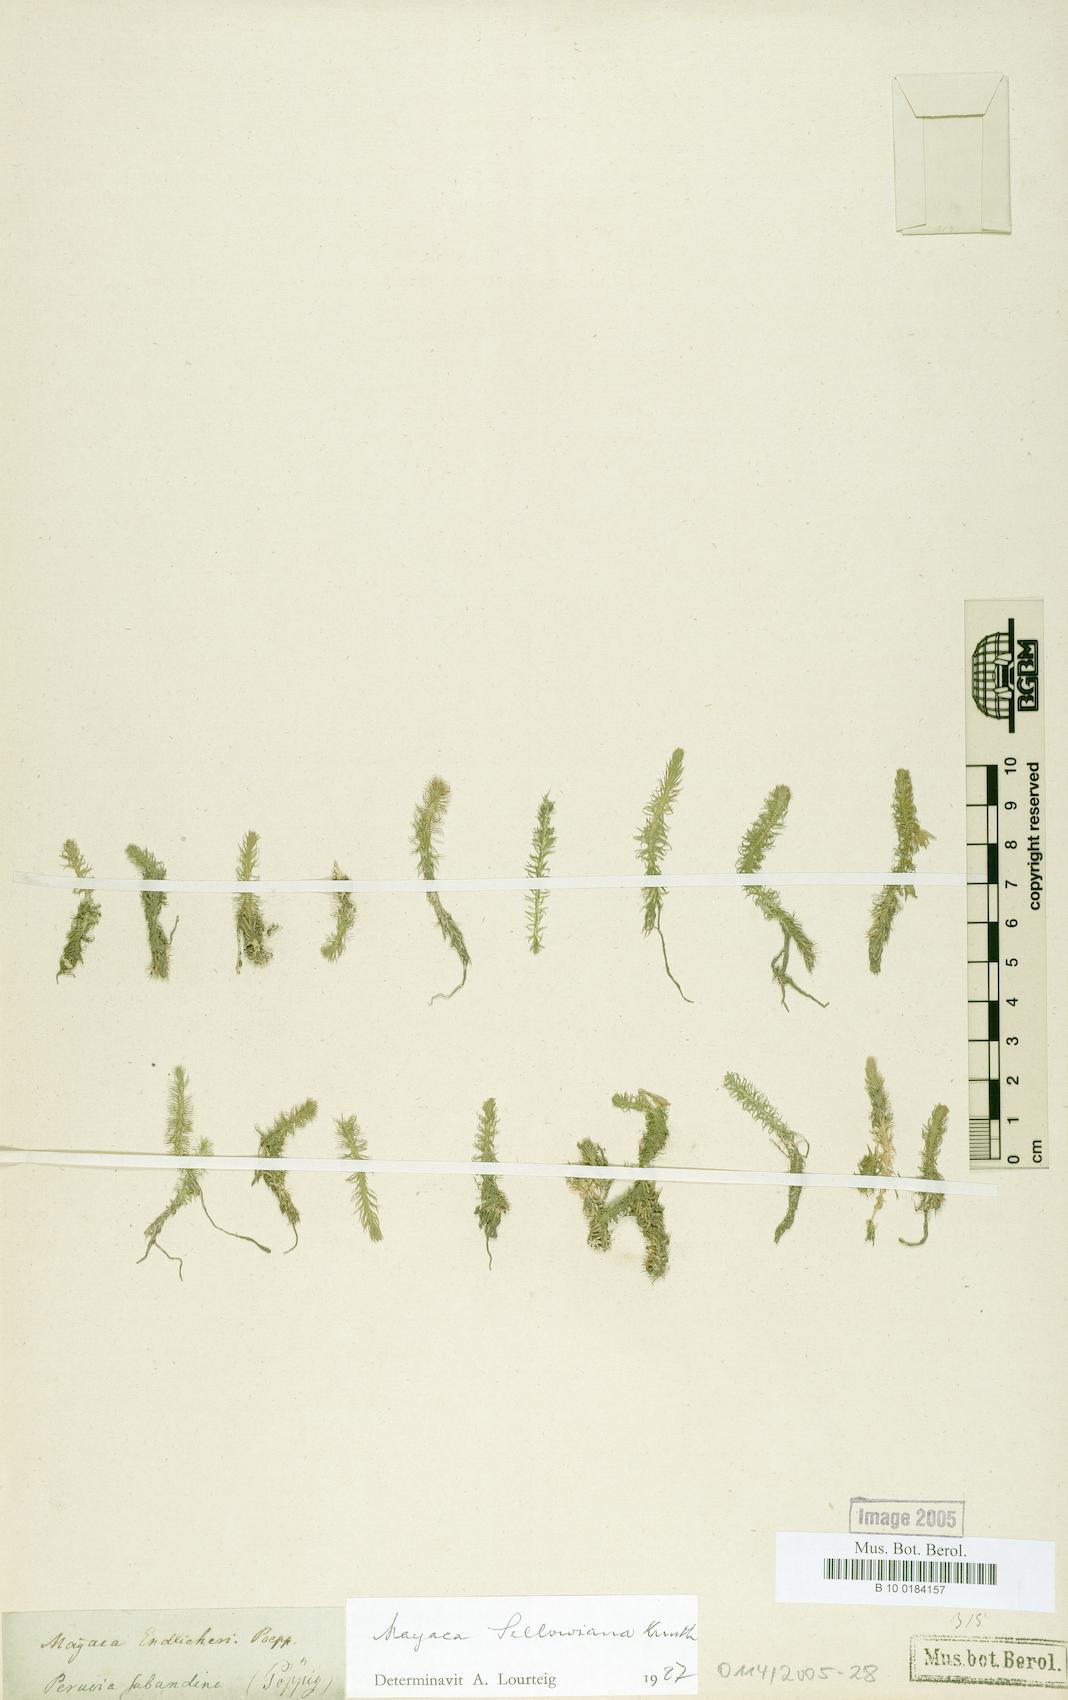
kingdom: Plantae
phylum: Tracheophyta
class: Liliopsida
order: Poales
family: Mayacaceae
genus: Mayaca
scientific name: Mayaca sellowiana
